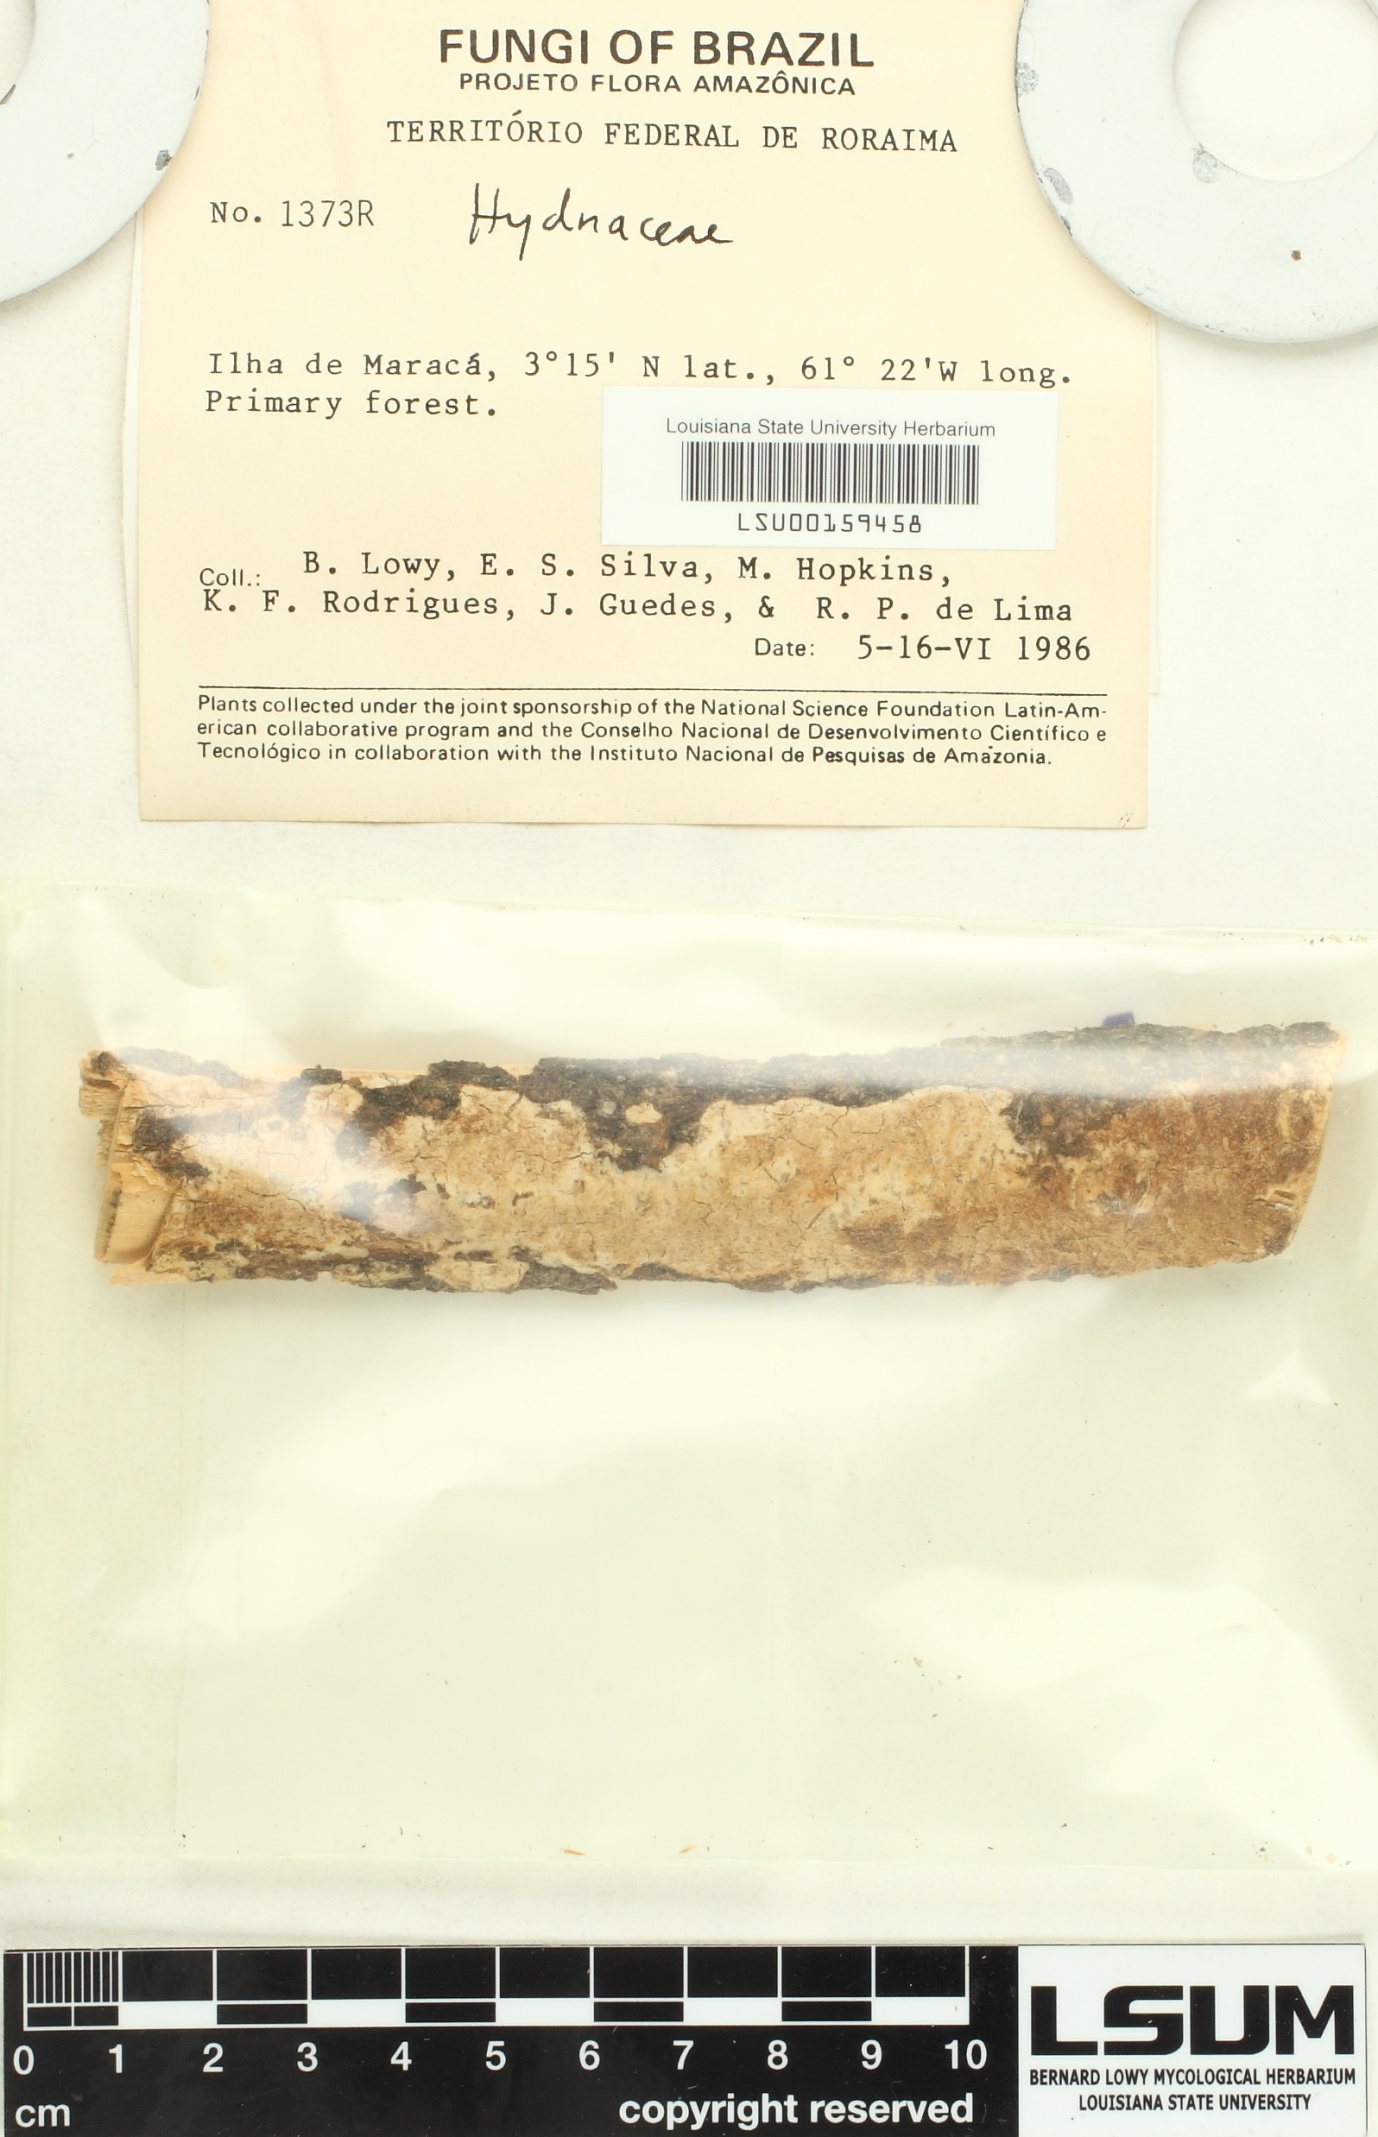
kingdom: Fungi
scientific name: Fungi
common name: Fungi
